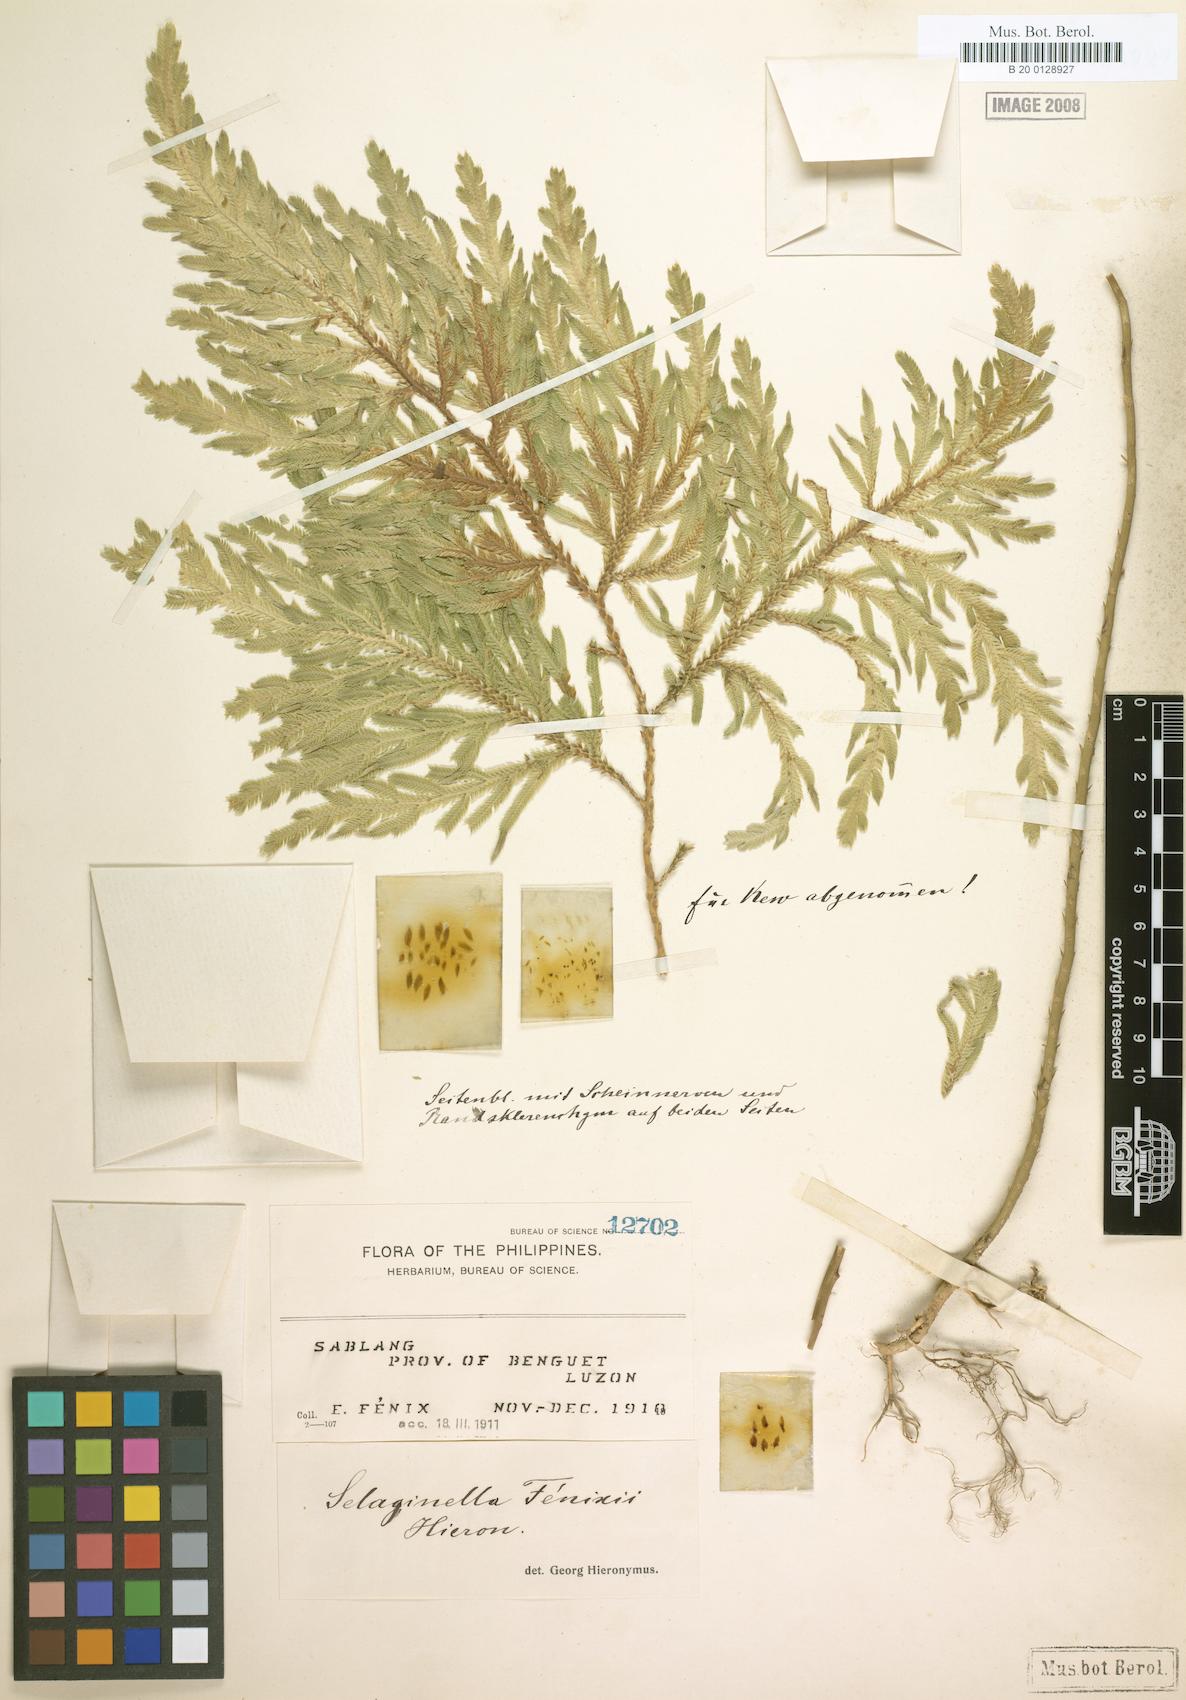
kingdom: Plantae
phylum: Tracheophyta
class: Lycopodiopsida
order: Selaginellales
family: Selaginellaceae
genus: Selaginella
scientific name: Selaginella fenixii
